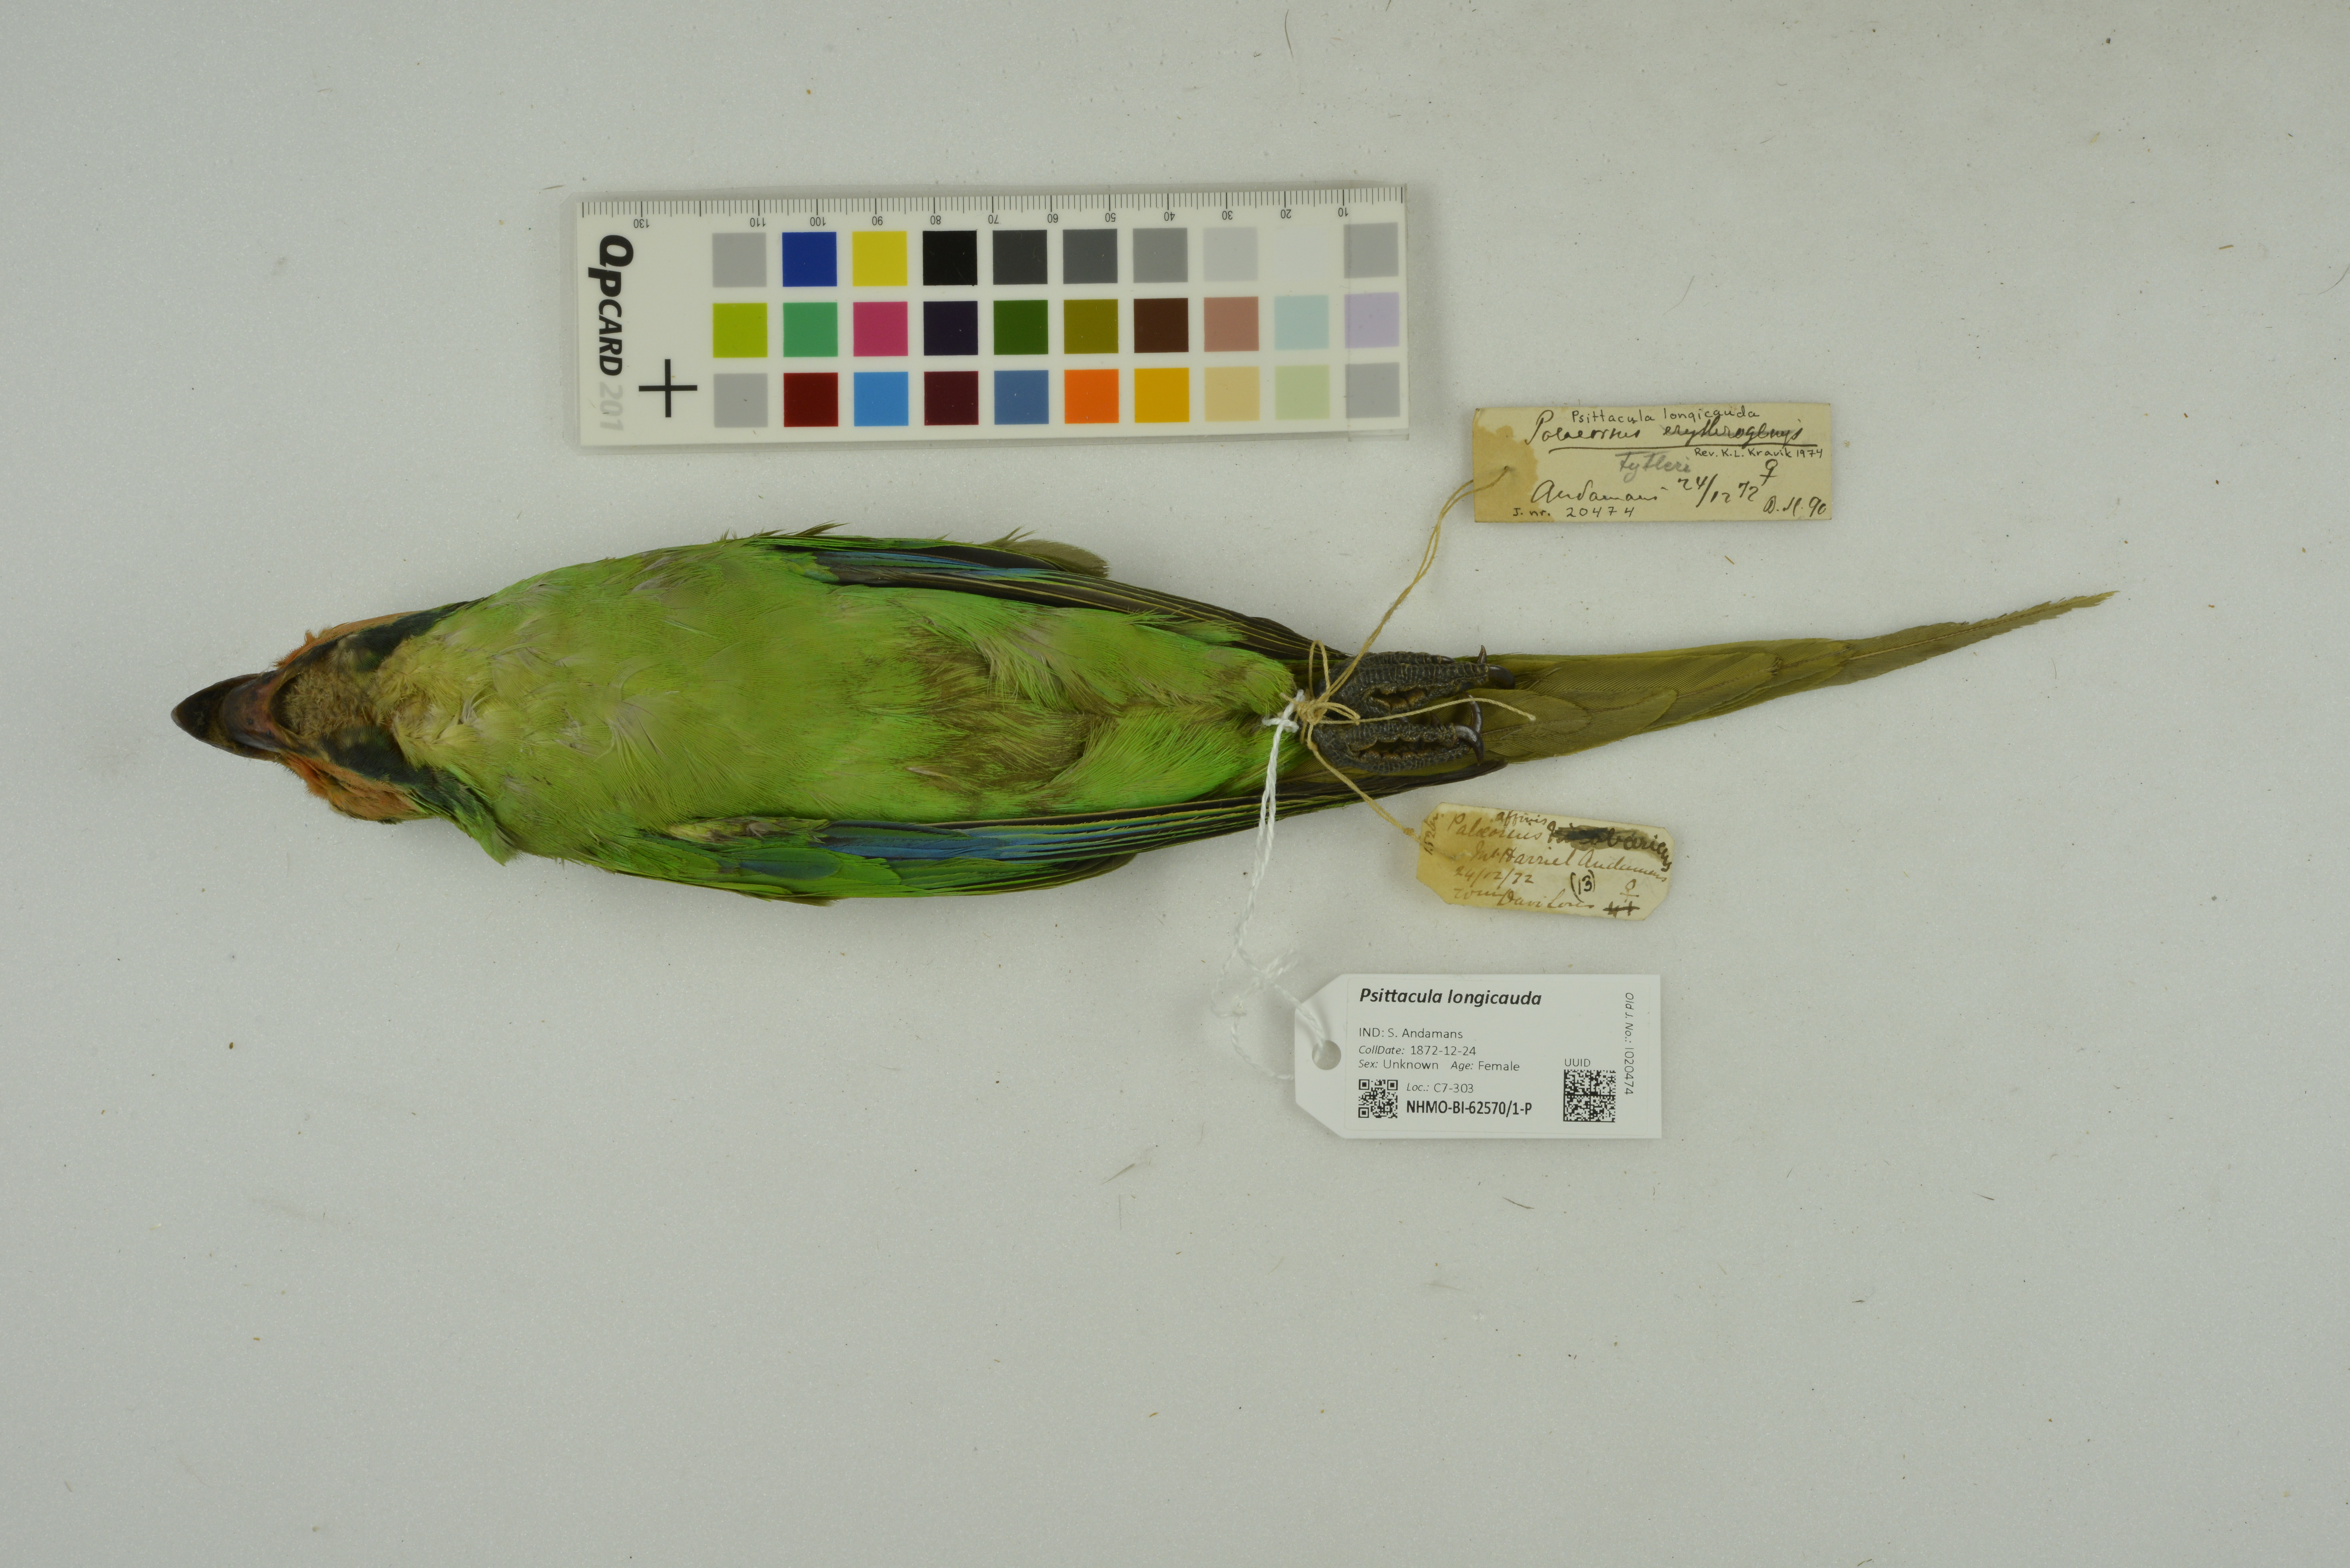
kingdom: Animalia
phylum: Chordata
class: Aves
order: Psittaciformes
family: Psittacidae
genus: Psittacula
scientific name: Psittacula longicauda
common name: Long-tailed parakeet
